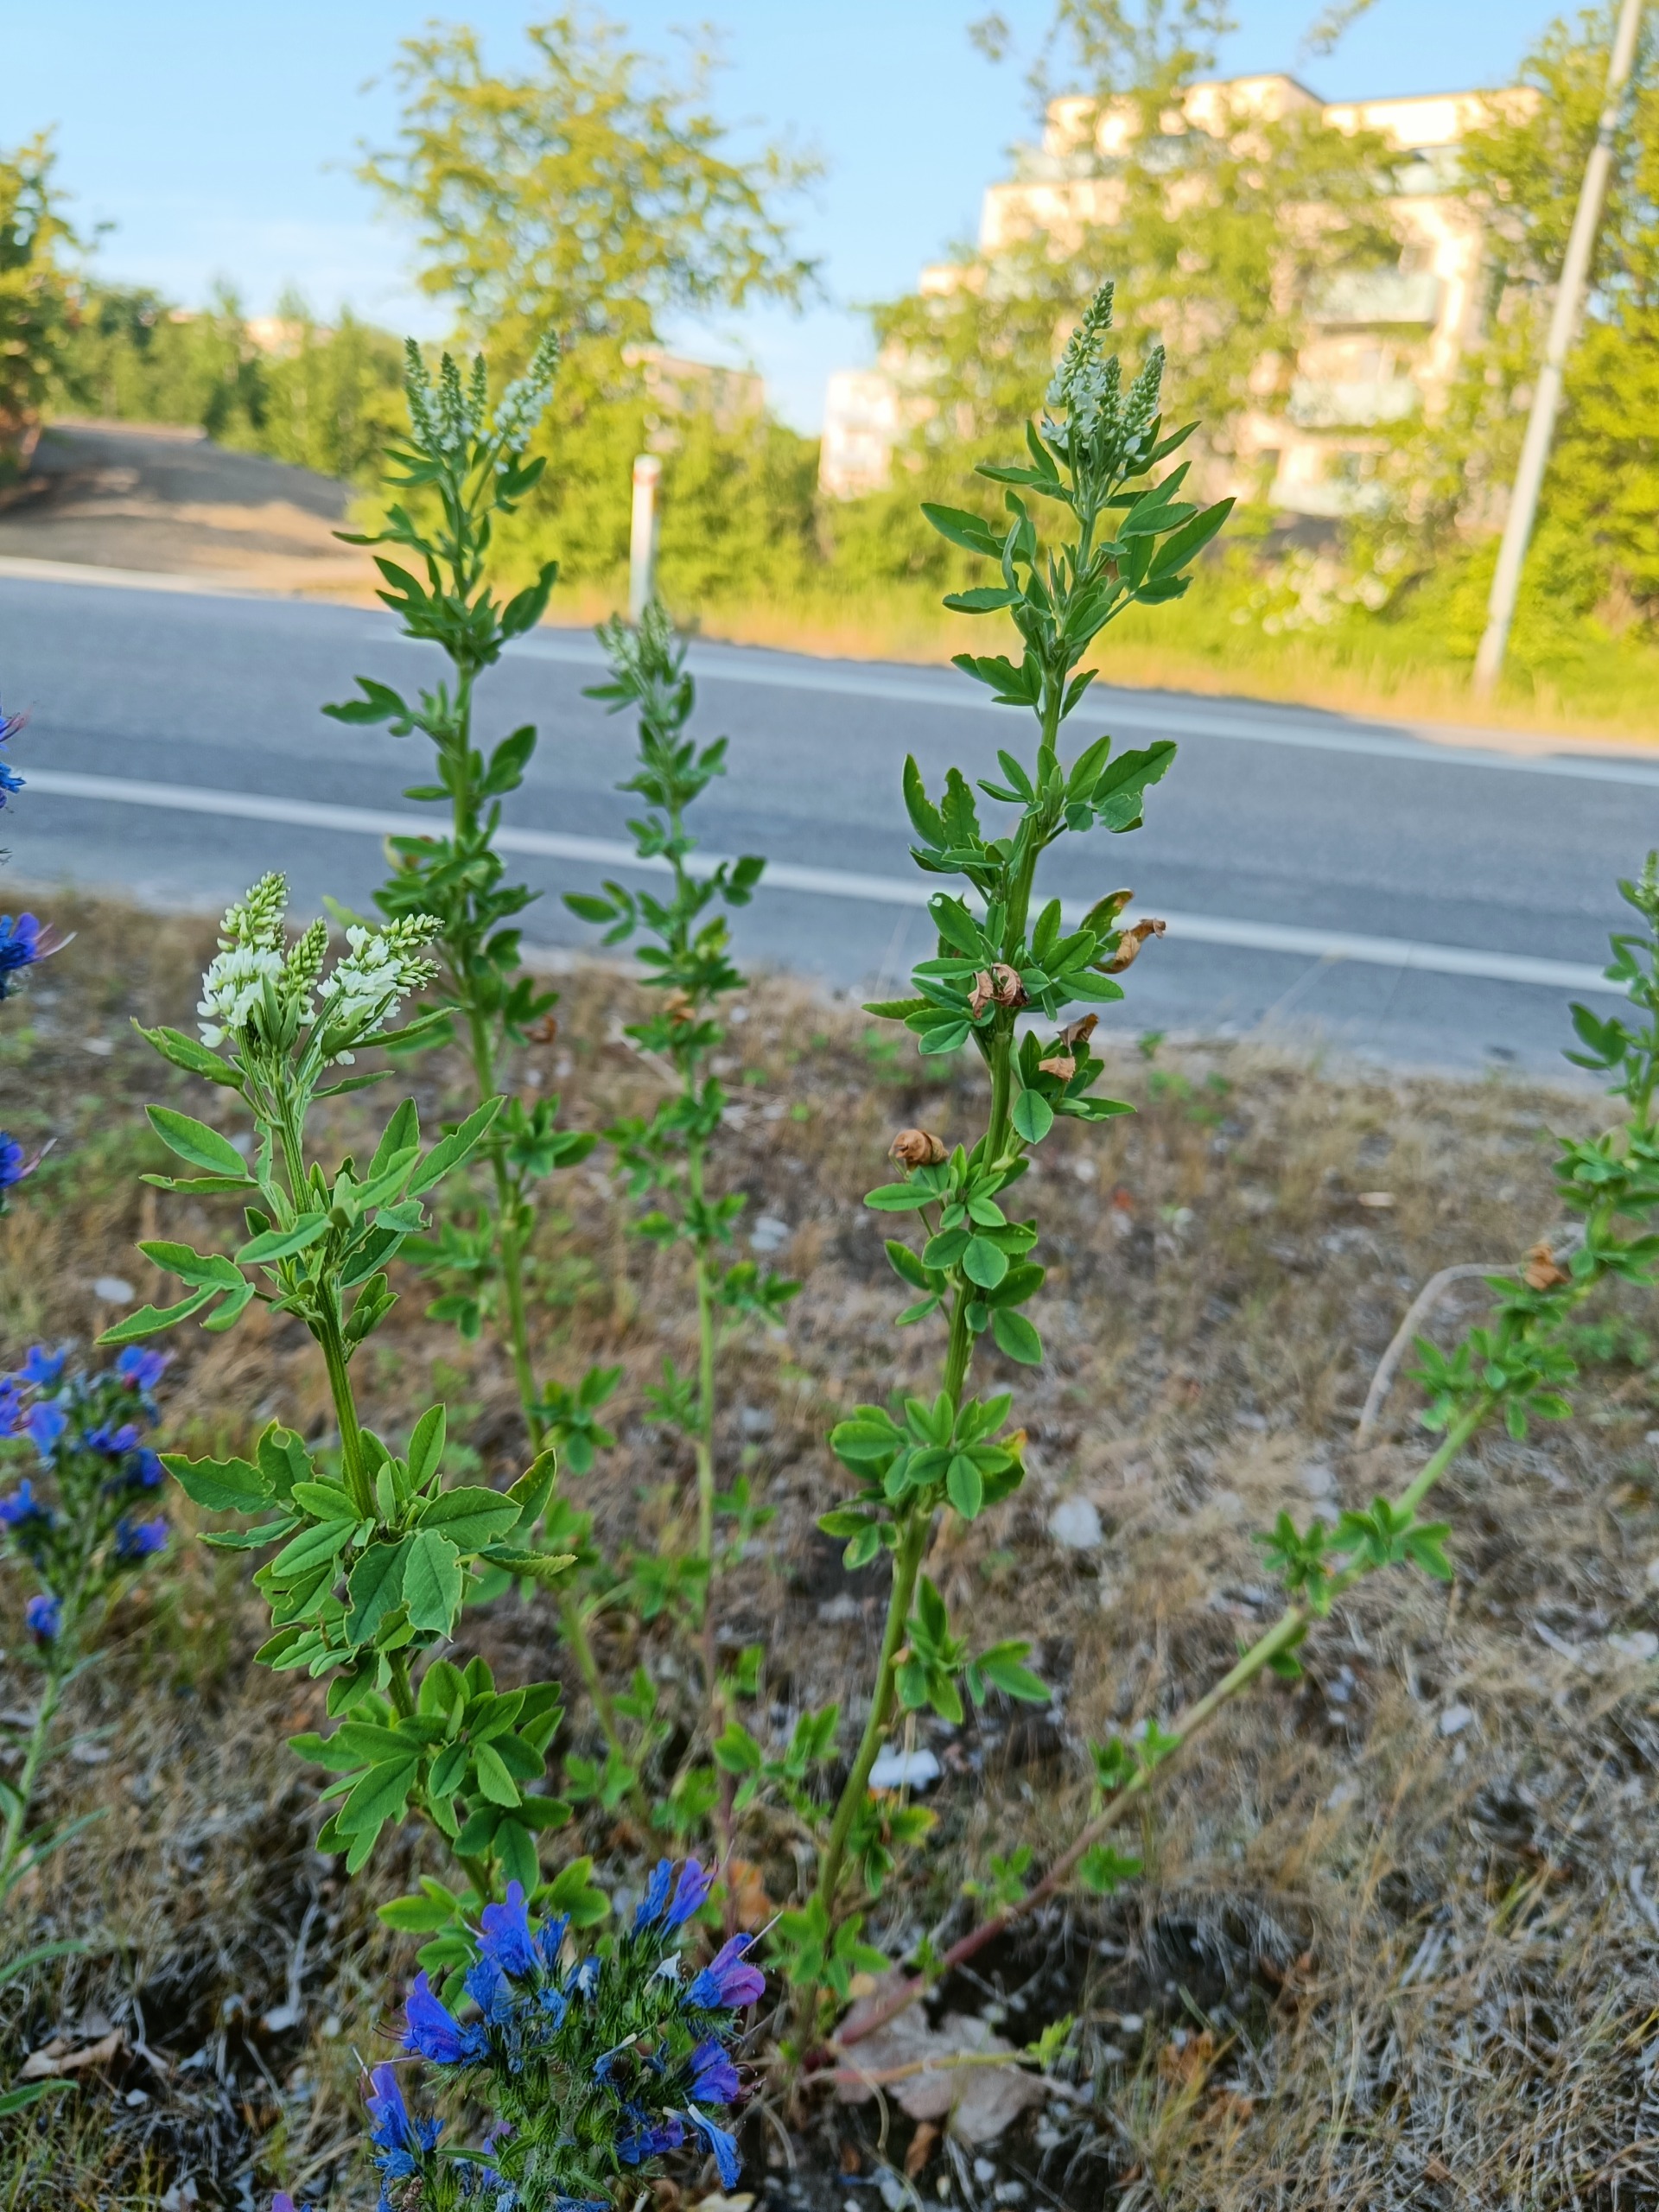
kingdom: Plantae
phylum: Tracheophyta
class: Magnoliopsida
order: Fabales
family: Fabaceae
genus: Melilotus
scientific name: Melilotus albus
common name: Hvid stenkløver
